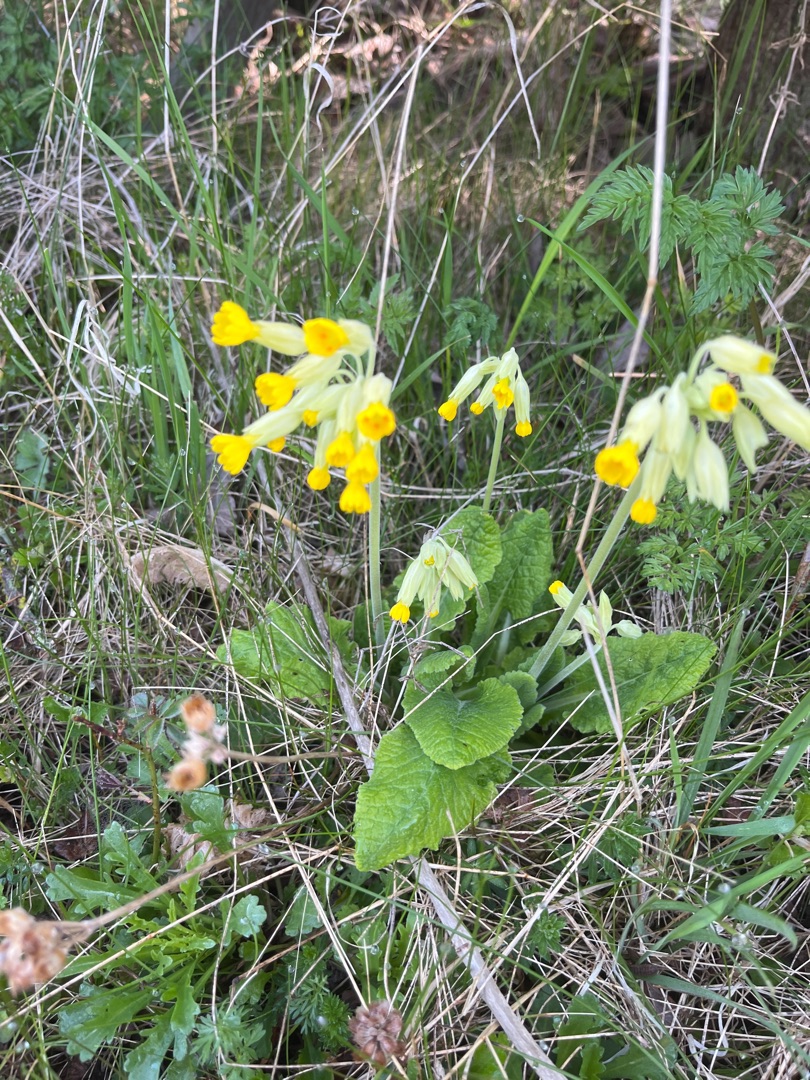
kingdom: Plantae
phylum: Tracheophyta
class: Magnoliopsida
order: Ericales
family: Primulaceae
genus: Primula
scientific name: Primula veris
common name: Hulkravet kodriver
